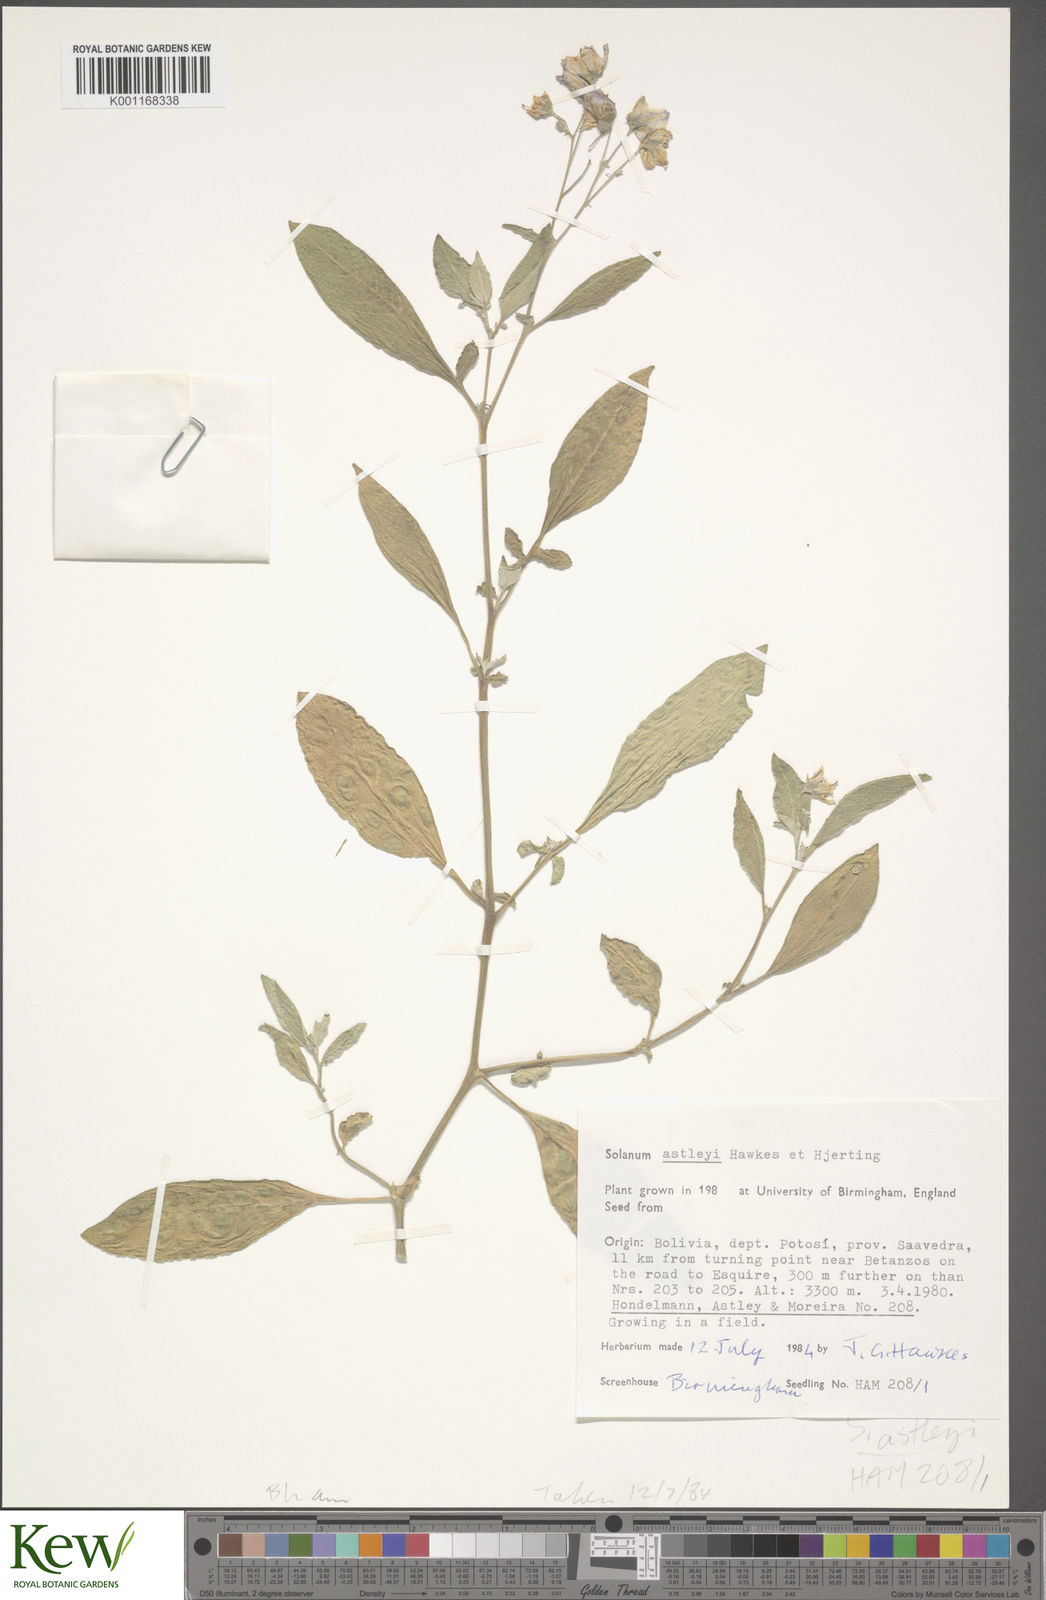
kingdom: Plantae
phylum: Tracheophyta
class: Magnoliopsida
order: Solanales
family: Solanaceae
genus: Solanum
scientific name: Solanum boliviense
